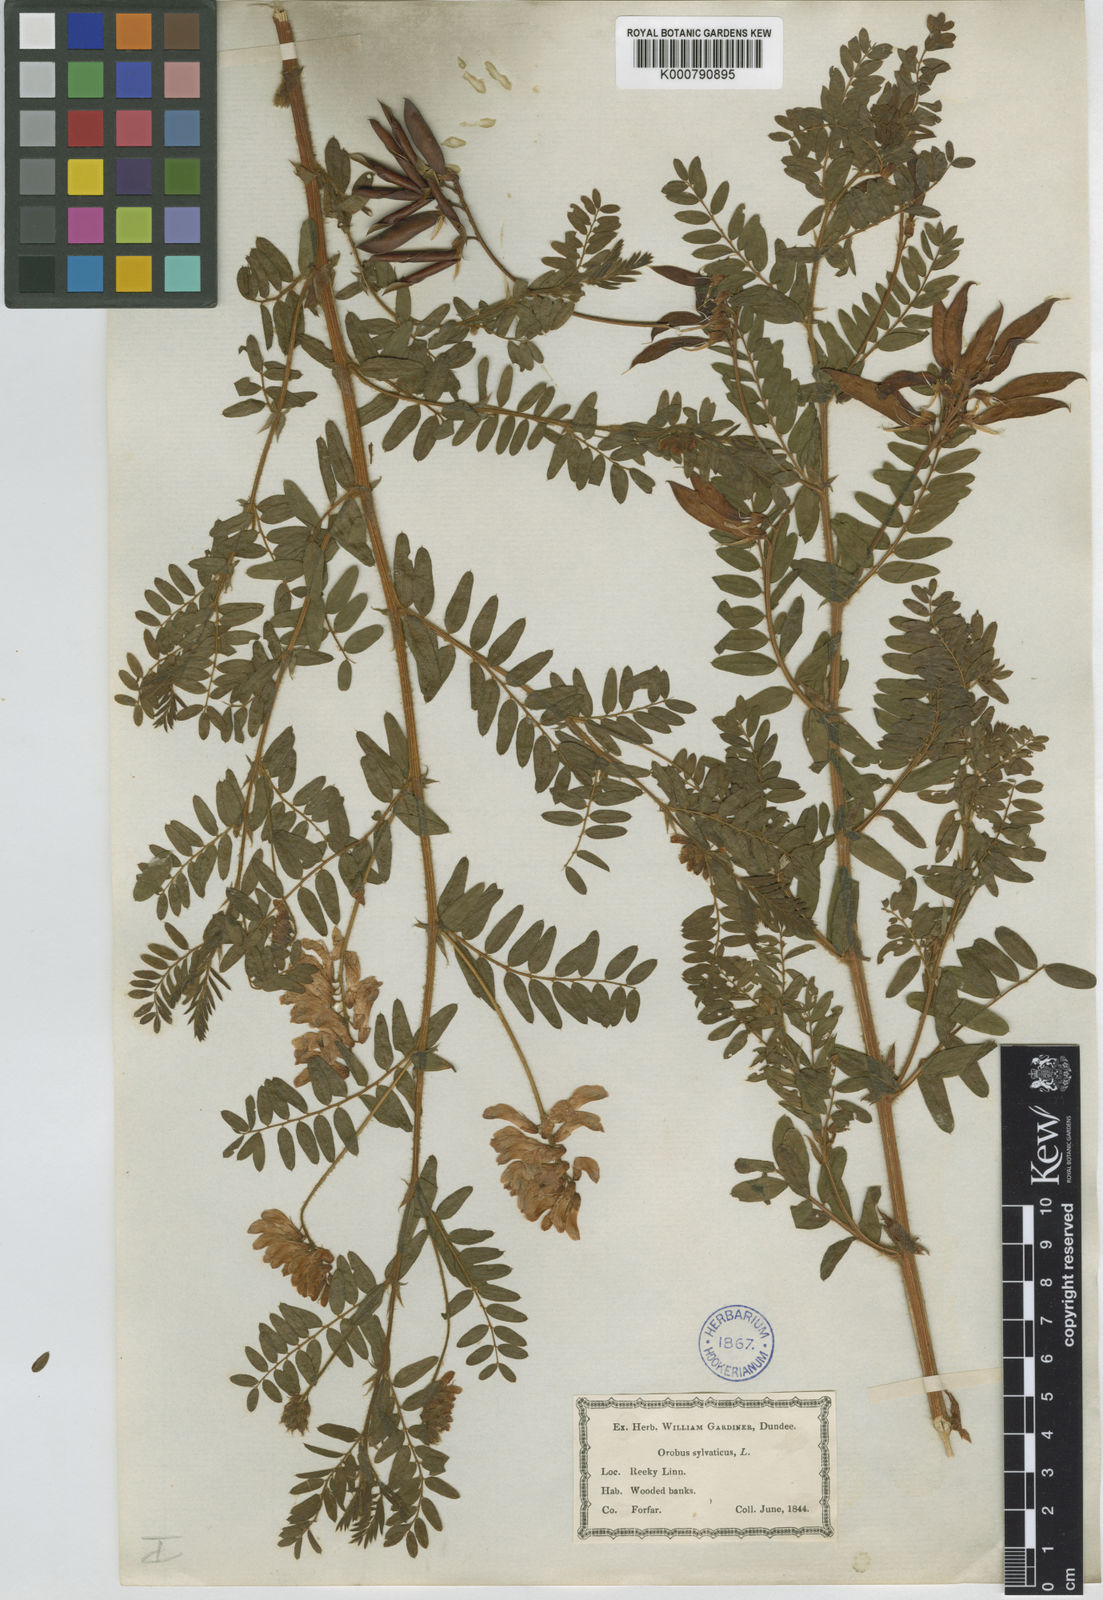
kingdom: Plantae
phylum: Tracheophyta
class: Magnoliopsida
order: Fabales
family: Fabaceae
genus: Vicia
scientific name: Vicia orobus
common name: Wood bitter-vetch
